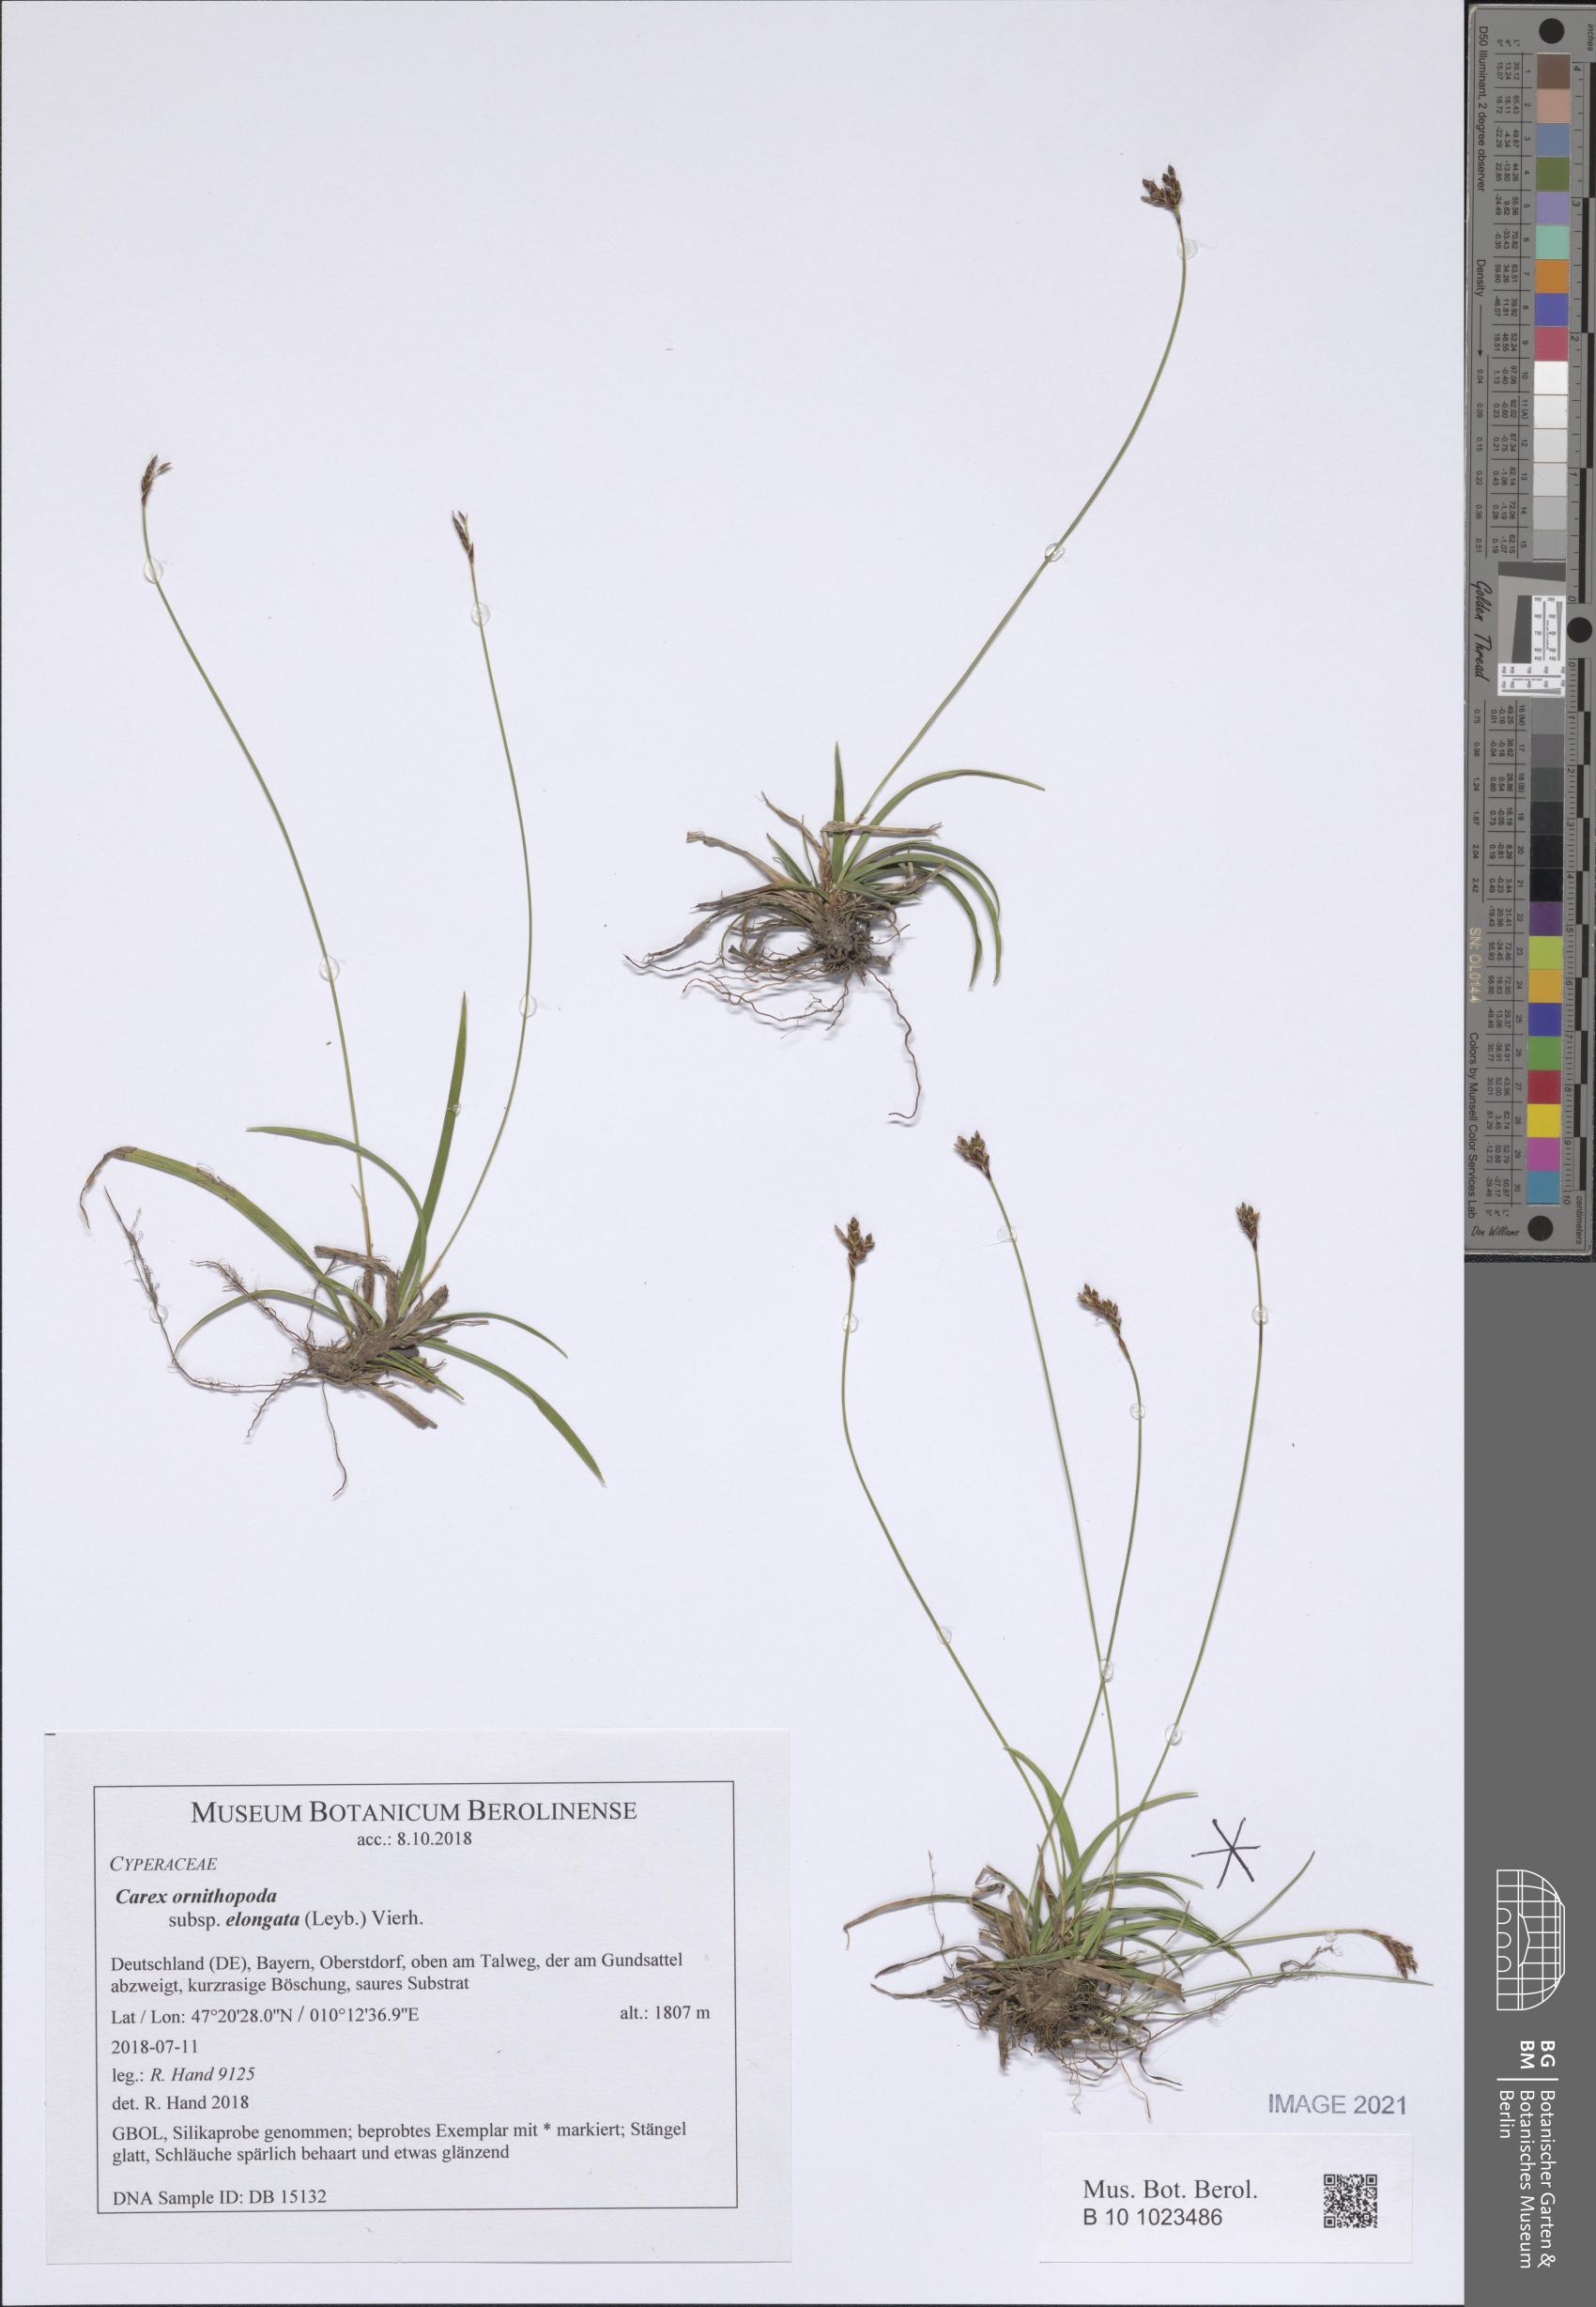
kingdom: Plantae
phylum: Tracheophyta
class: Liliopsida
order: Poales
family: Cyperaceae
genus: Carex
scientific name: Carex ornithopoda
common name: Bird's-foot sedge
